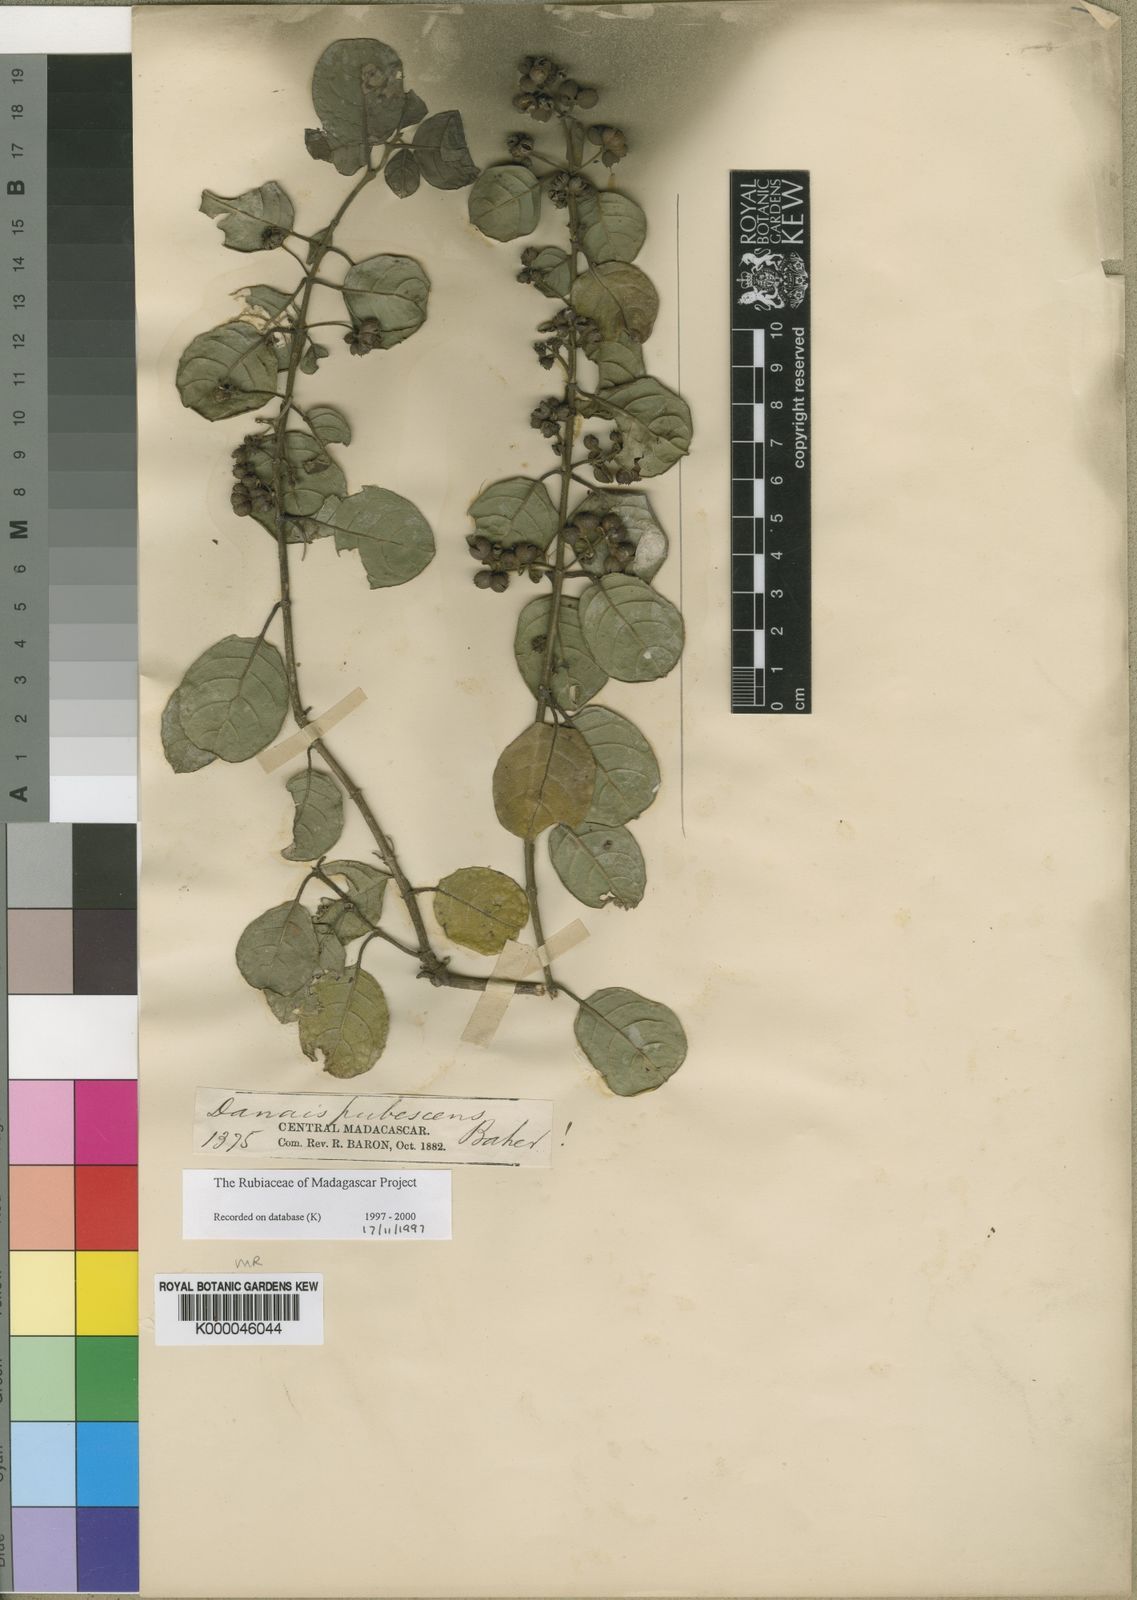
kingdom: Plantae
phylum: Tracheophyta
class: Magnoliopsida
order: Gentianales
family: Rubiaceae
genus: Danais
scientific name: Danais pubescens
